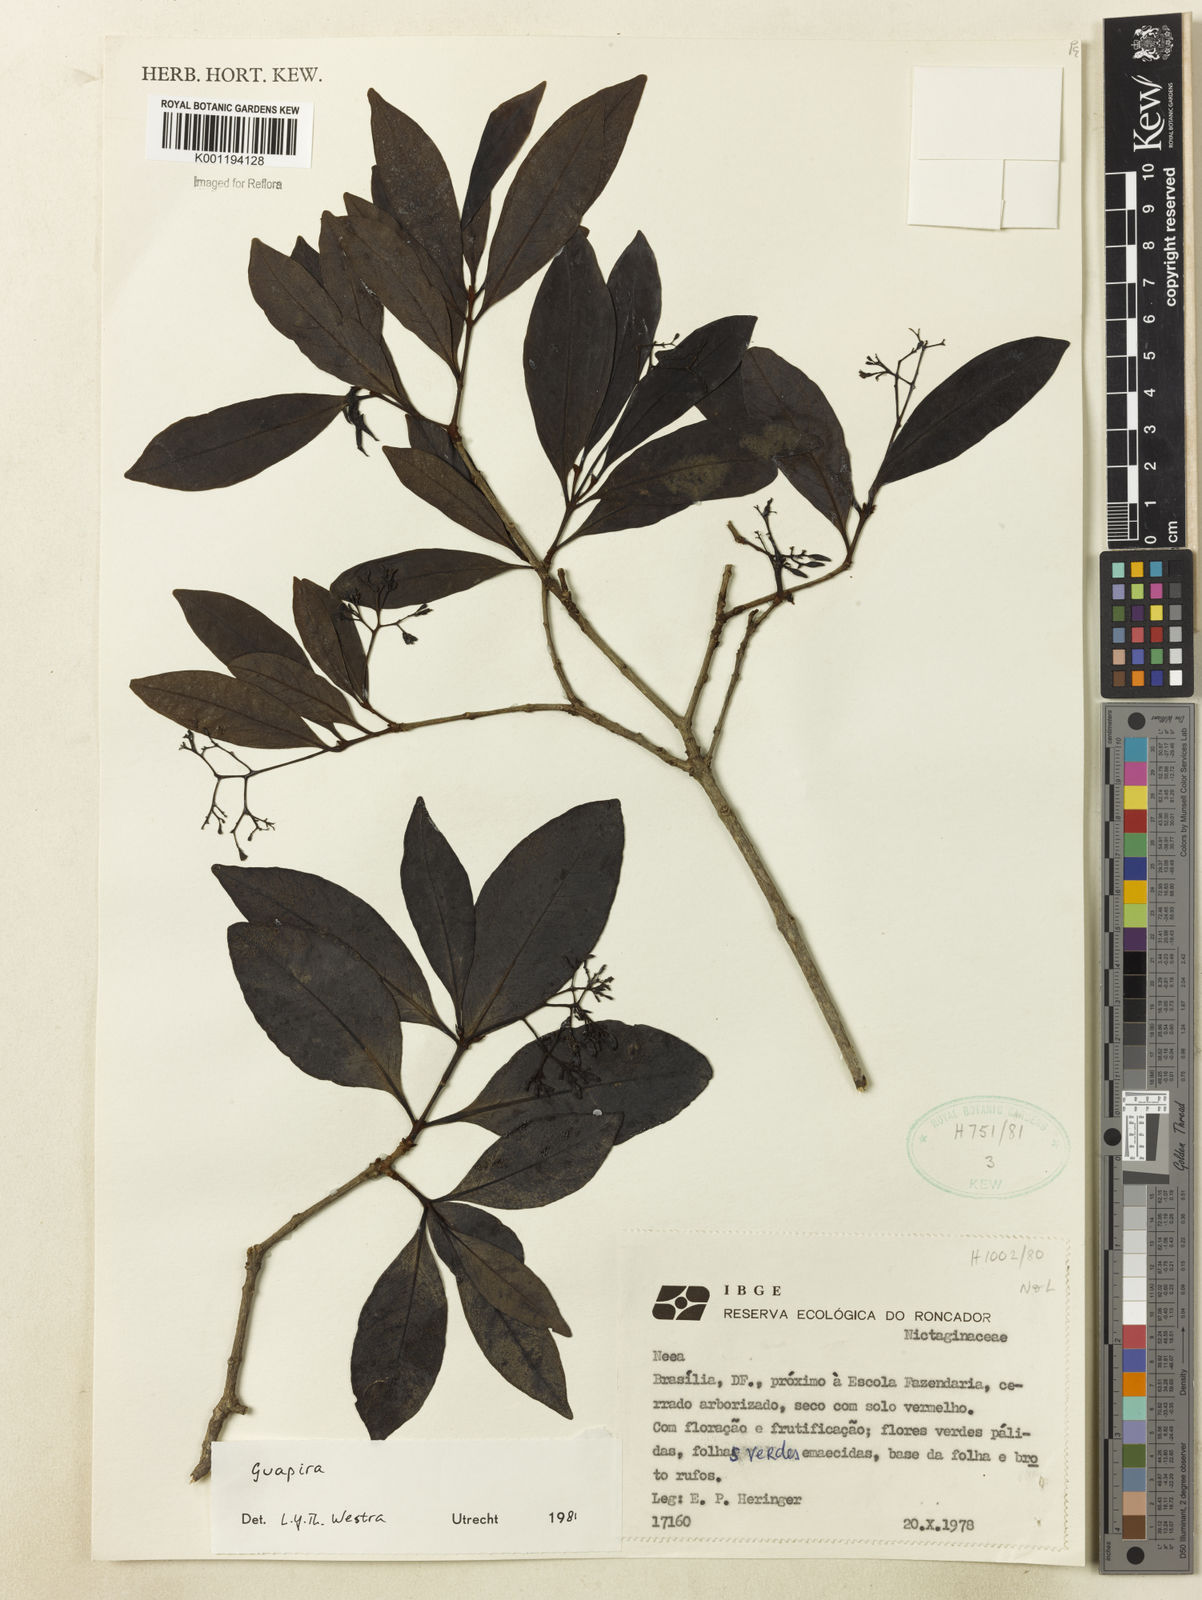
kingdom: Plantae
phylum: Tracheophyta
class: Magnoliopsida
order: Caryophyllales
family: Nyctaginaceae
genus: Guapira
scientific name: Guapira
